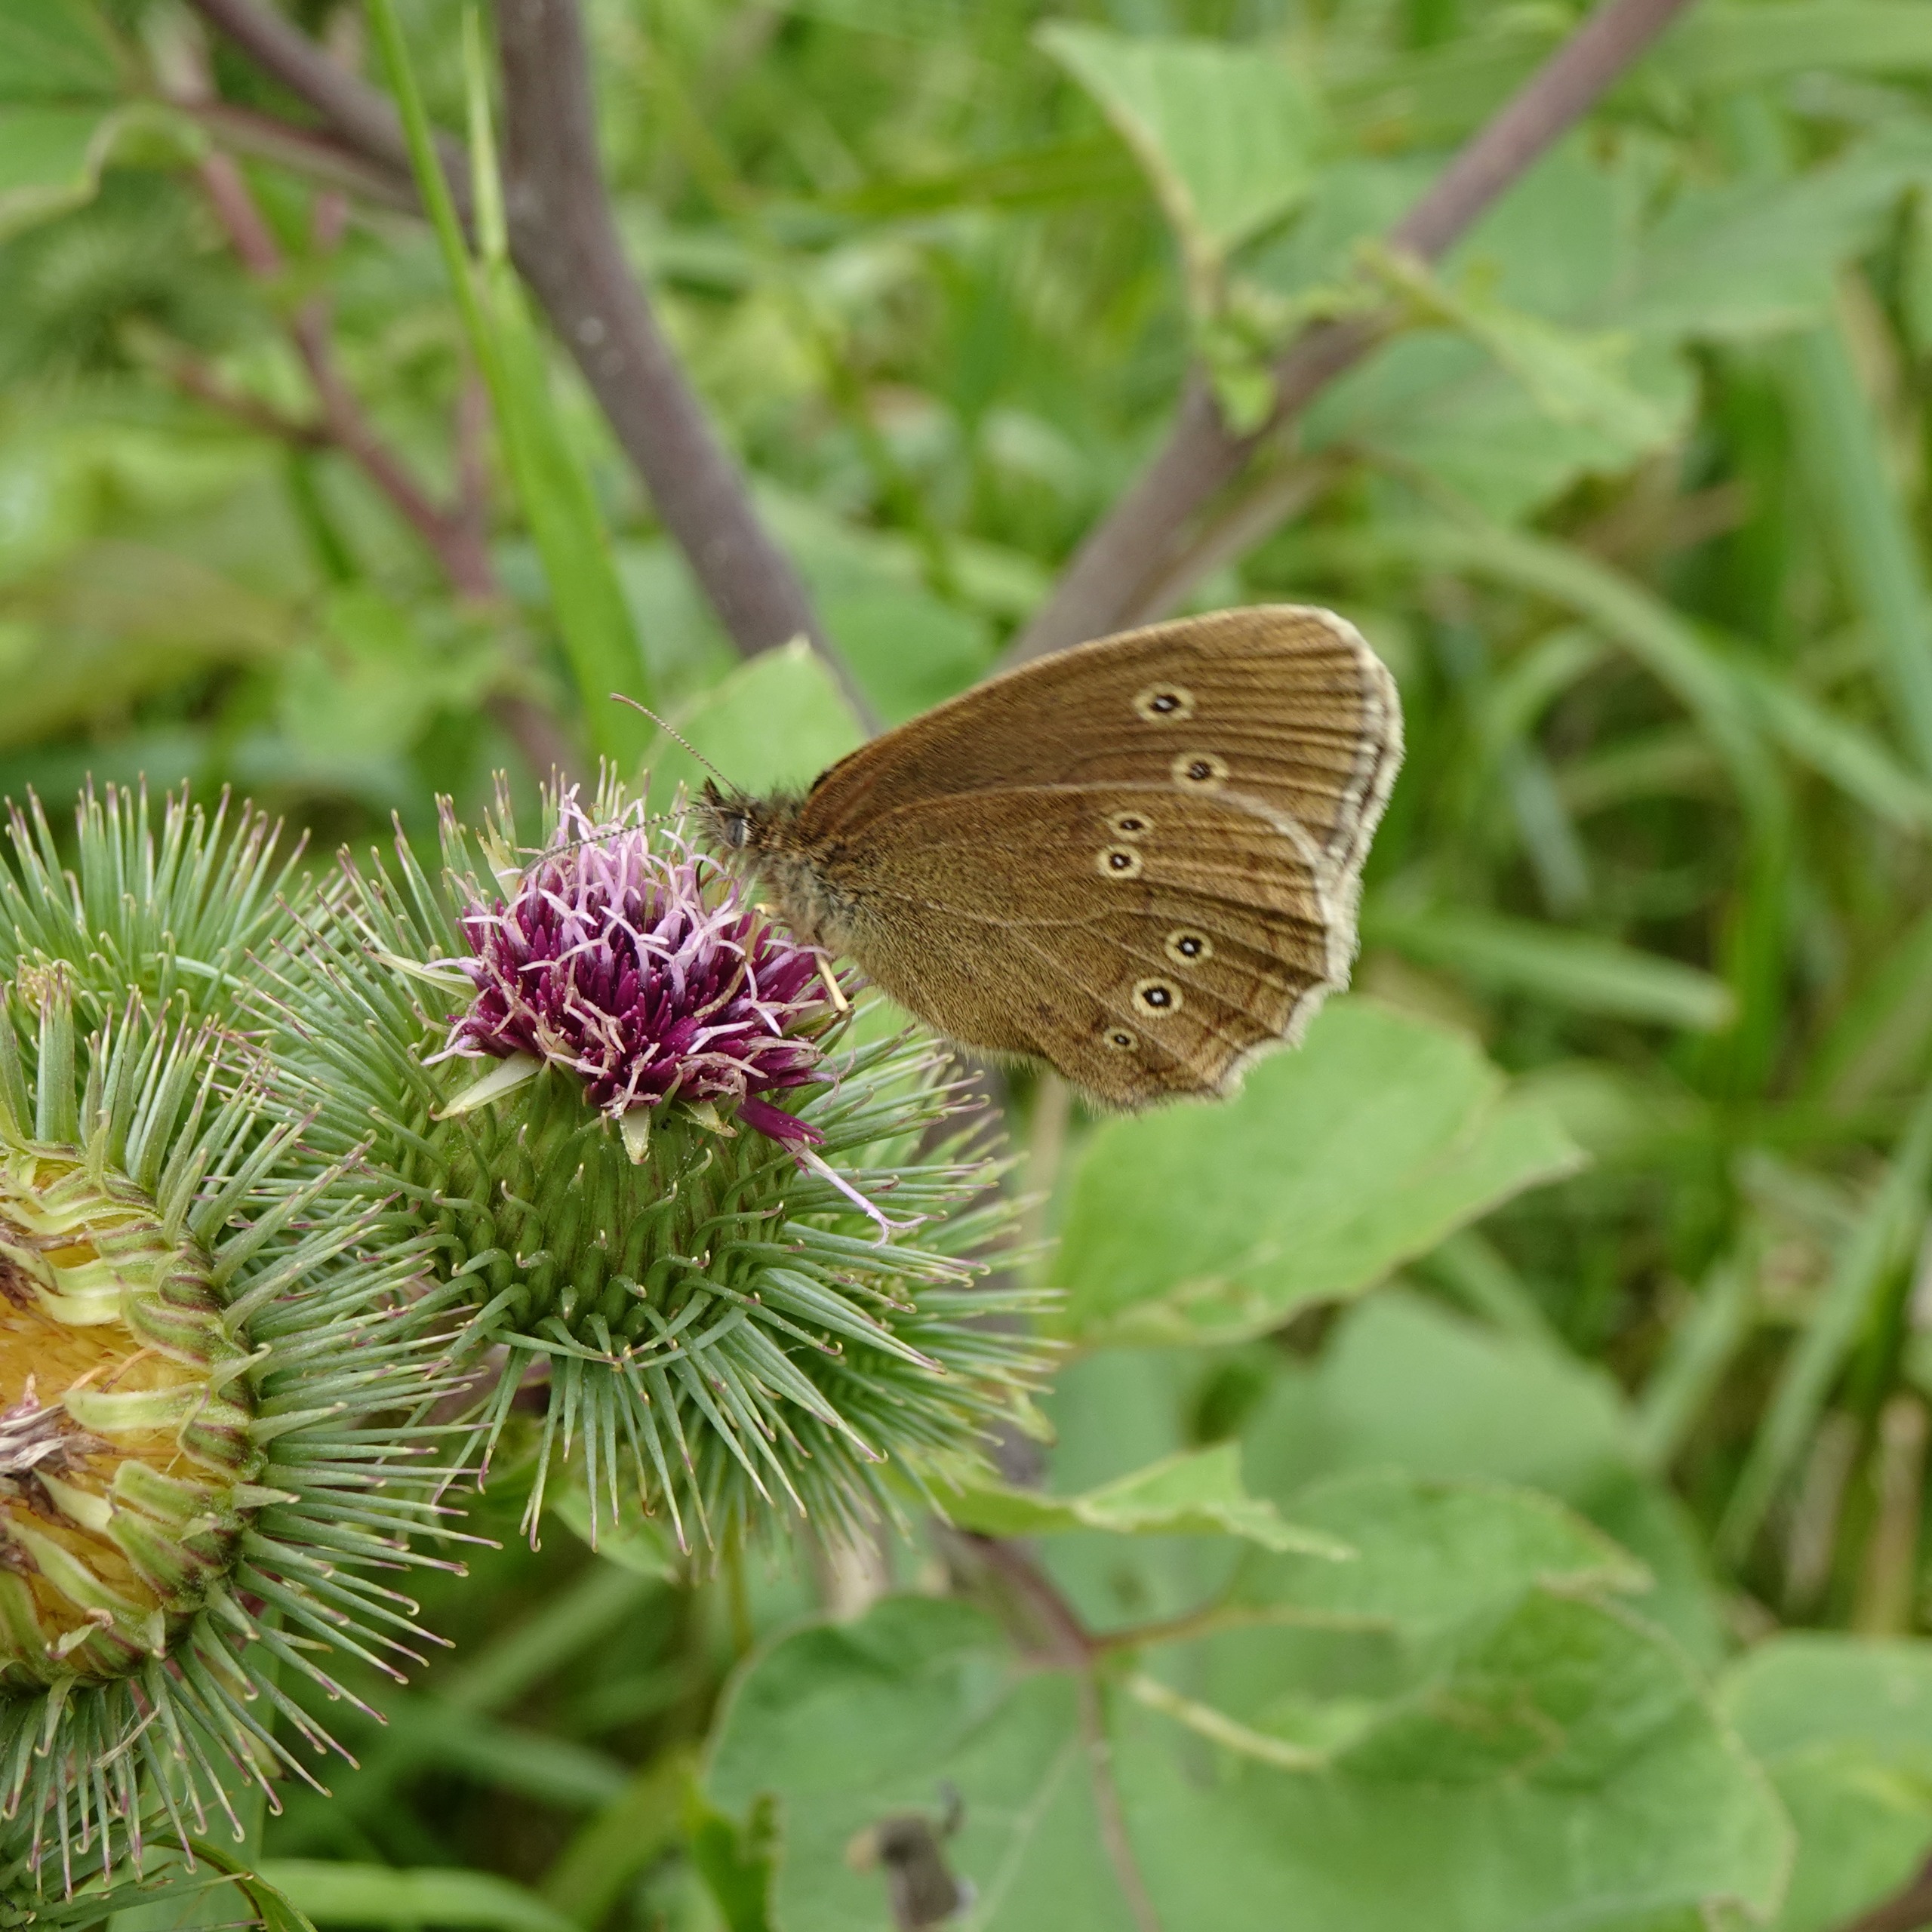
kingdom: Animalia
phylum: Arthropoda
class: Insecta
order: Lepidoptera
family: Nymphalidae
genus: Aphantopus
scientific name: Aphantopus hyperantus
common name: Engrandøje
